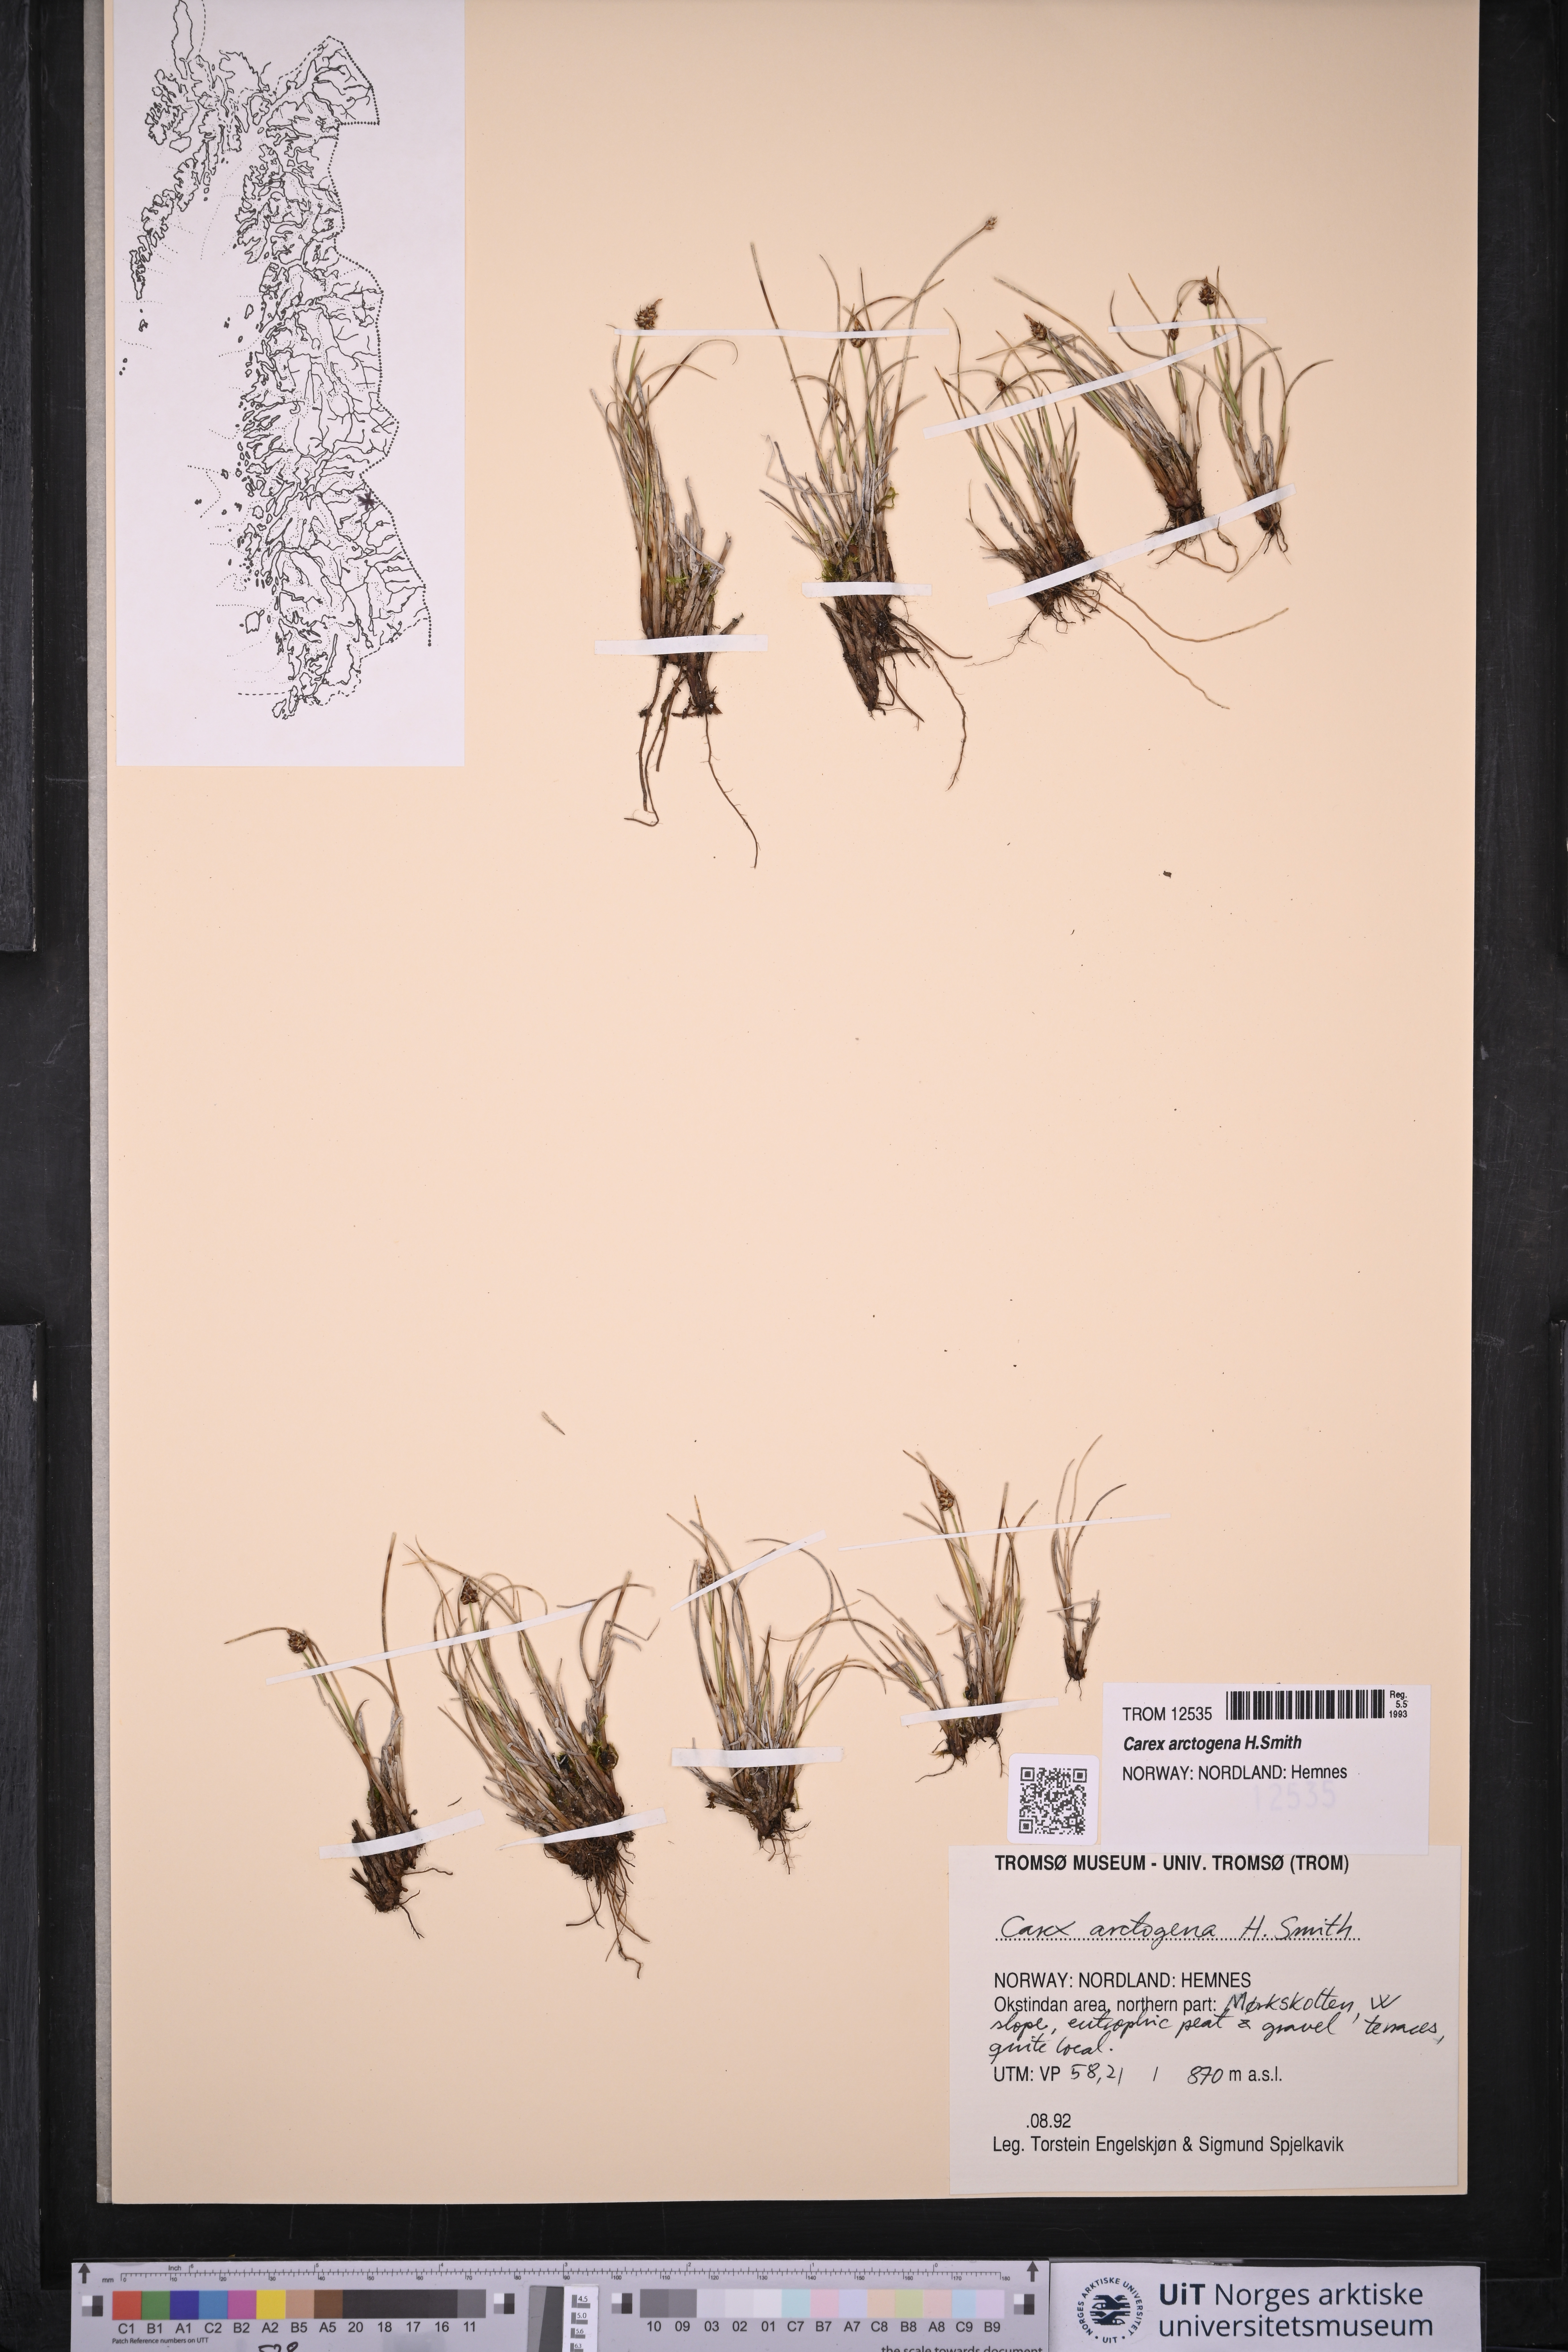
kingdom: Plantae
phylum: Tracheophyta
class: Liliopsida
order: Poales
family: Cyperaceae
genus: Carex
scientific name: Carex arctogena
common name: Black sedge
